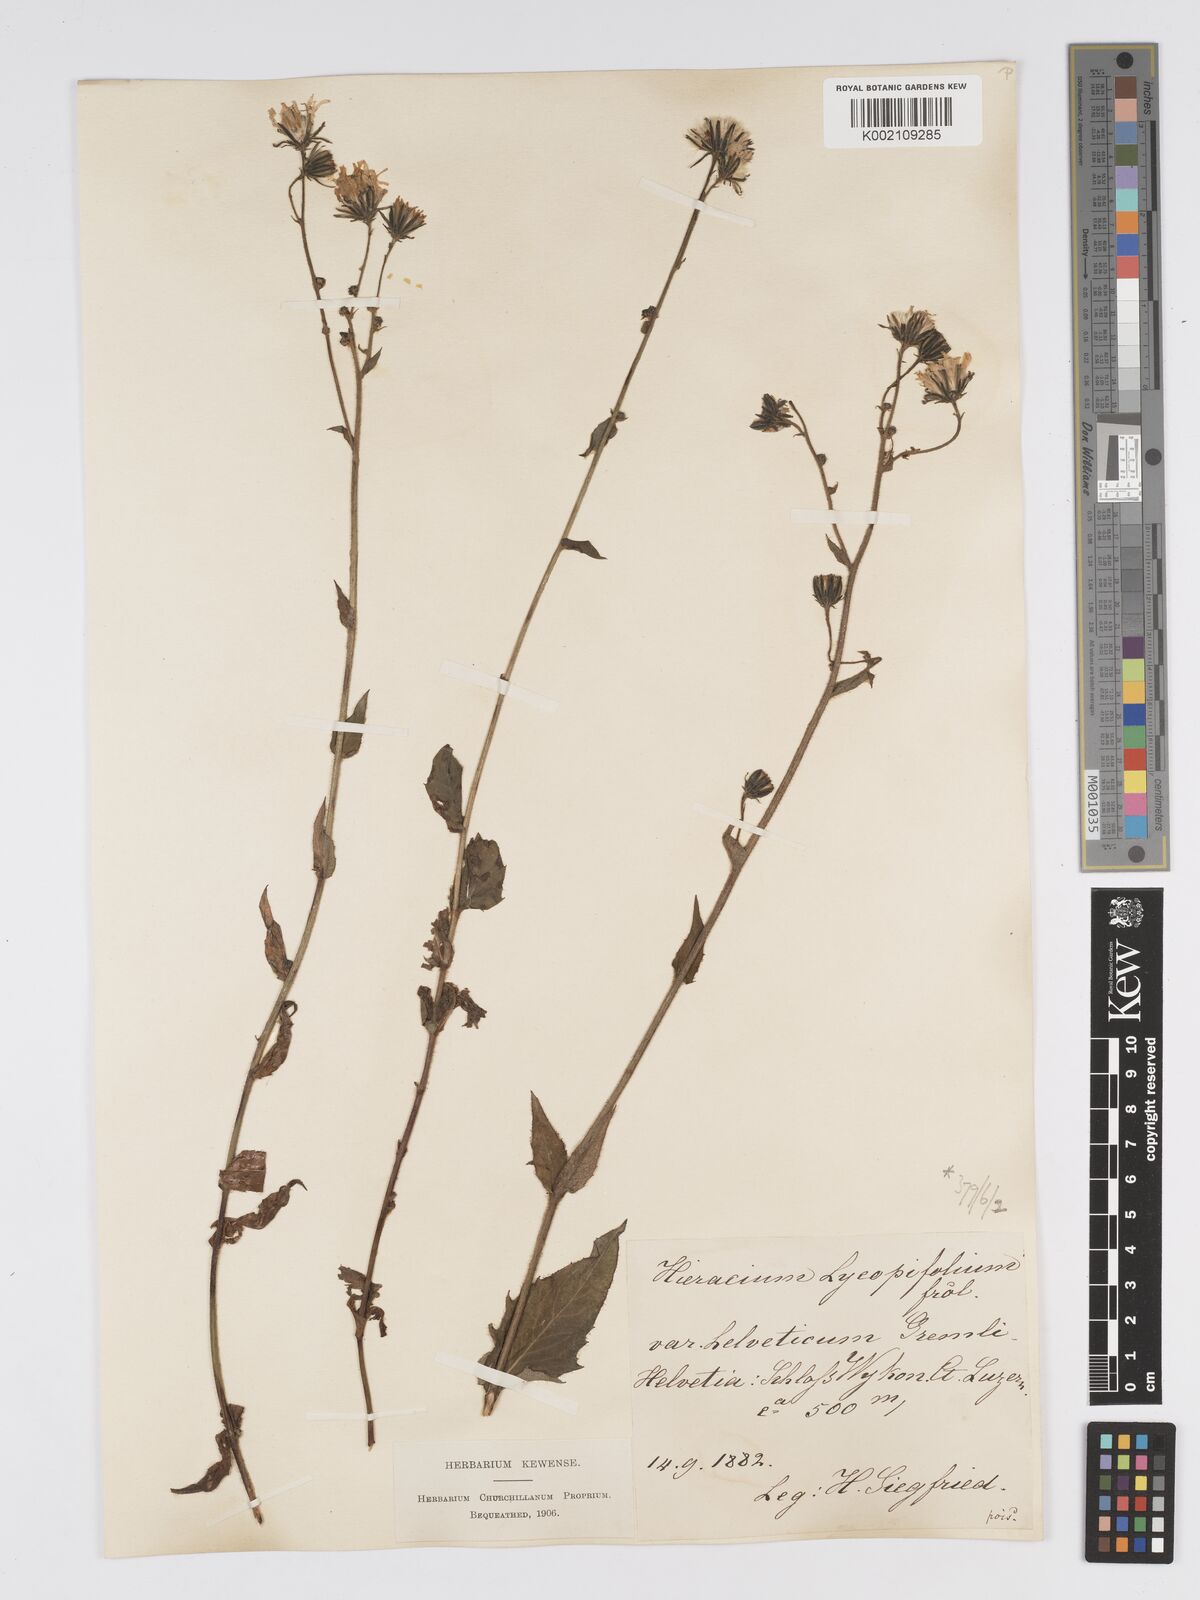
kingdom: Plantae
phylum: Tracheophyta
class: Magnoliopsida
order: Asterales
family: Asteraceae
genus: Hieracium
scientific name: Hieracium lycopifolium
